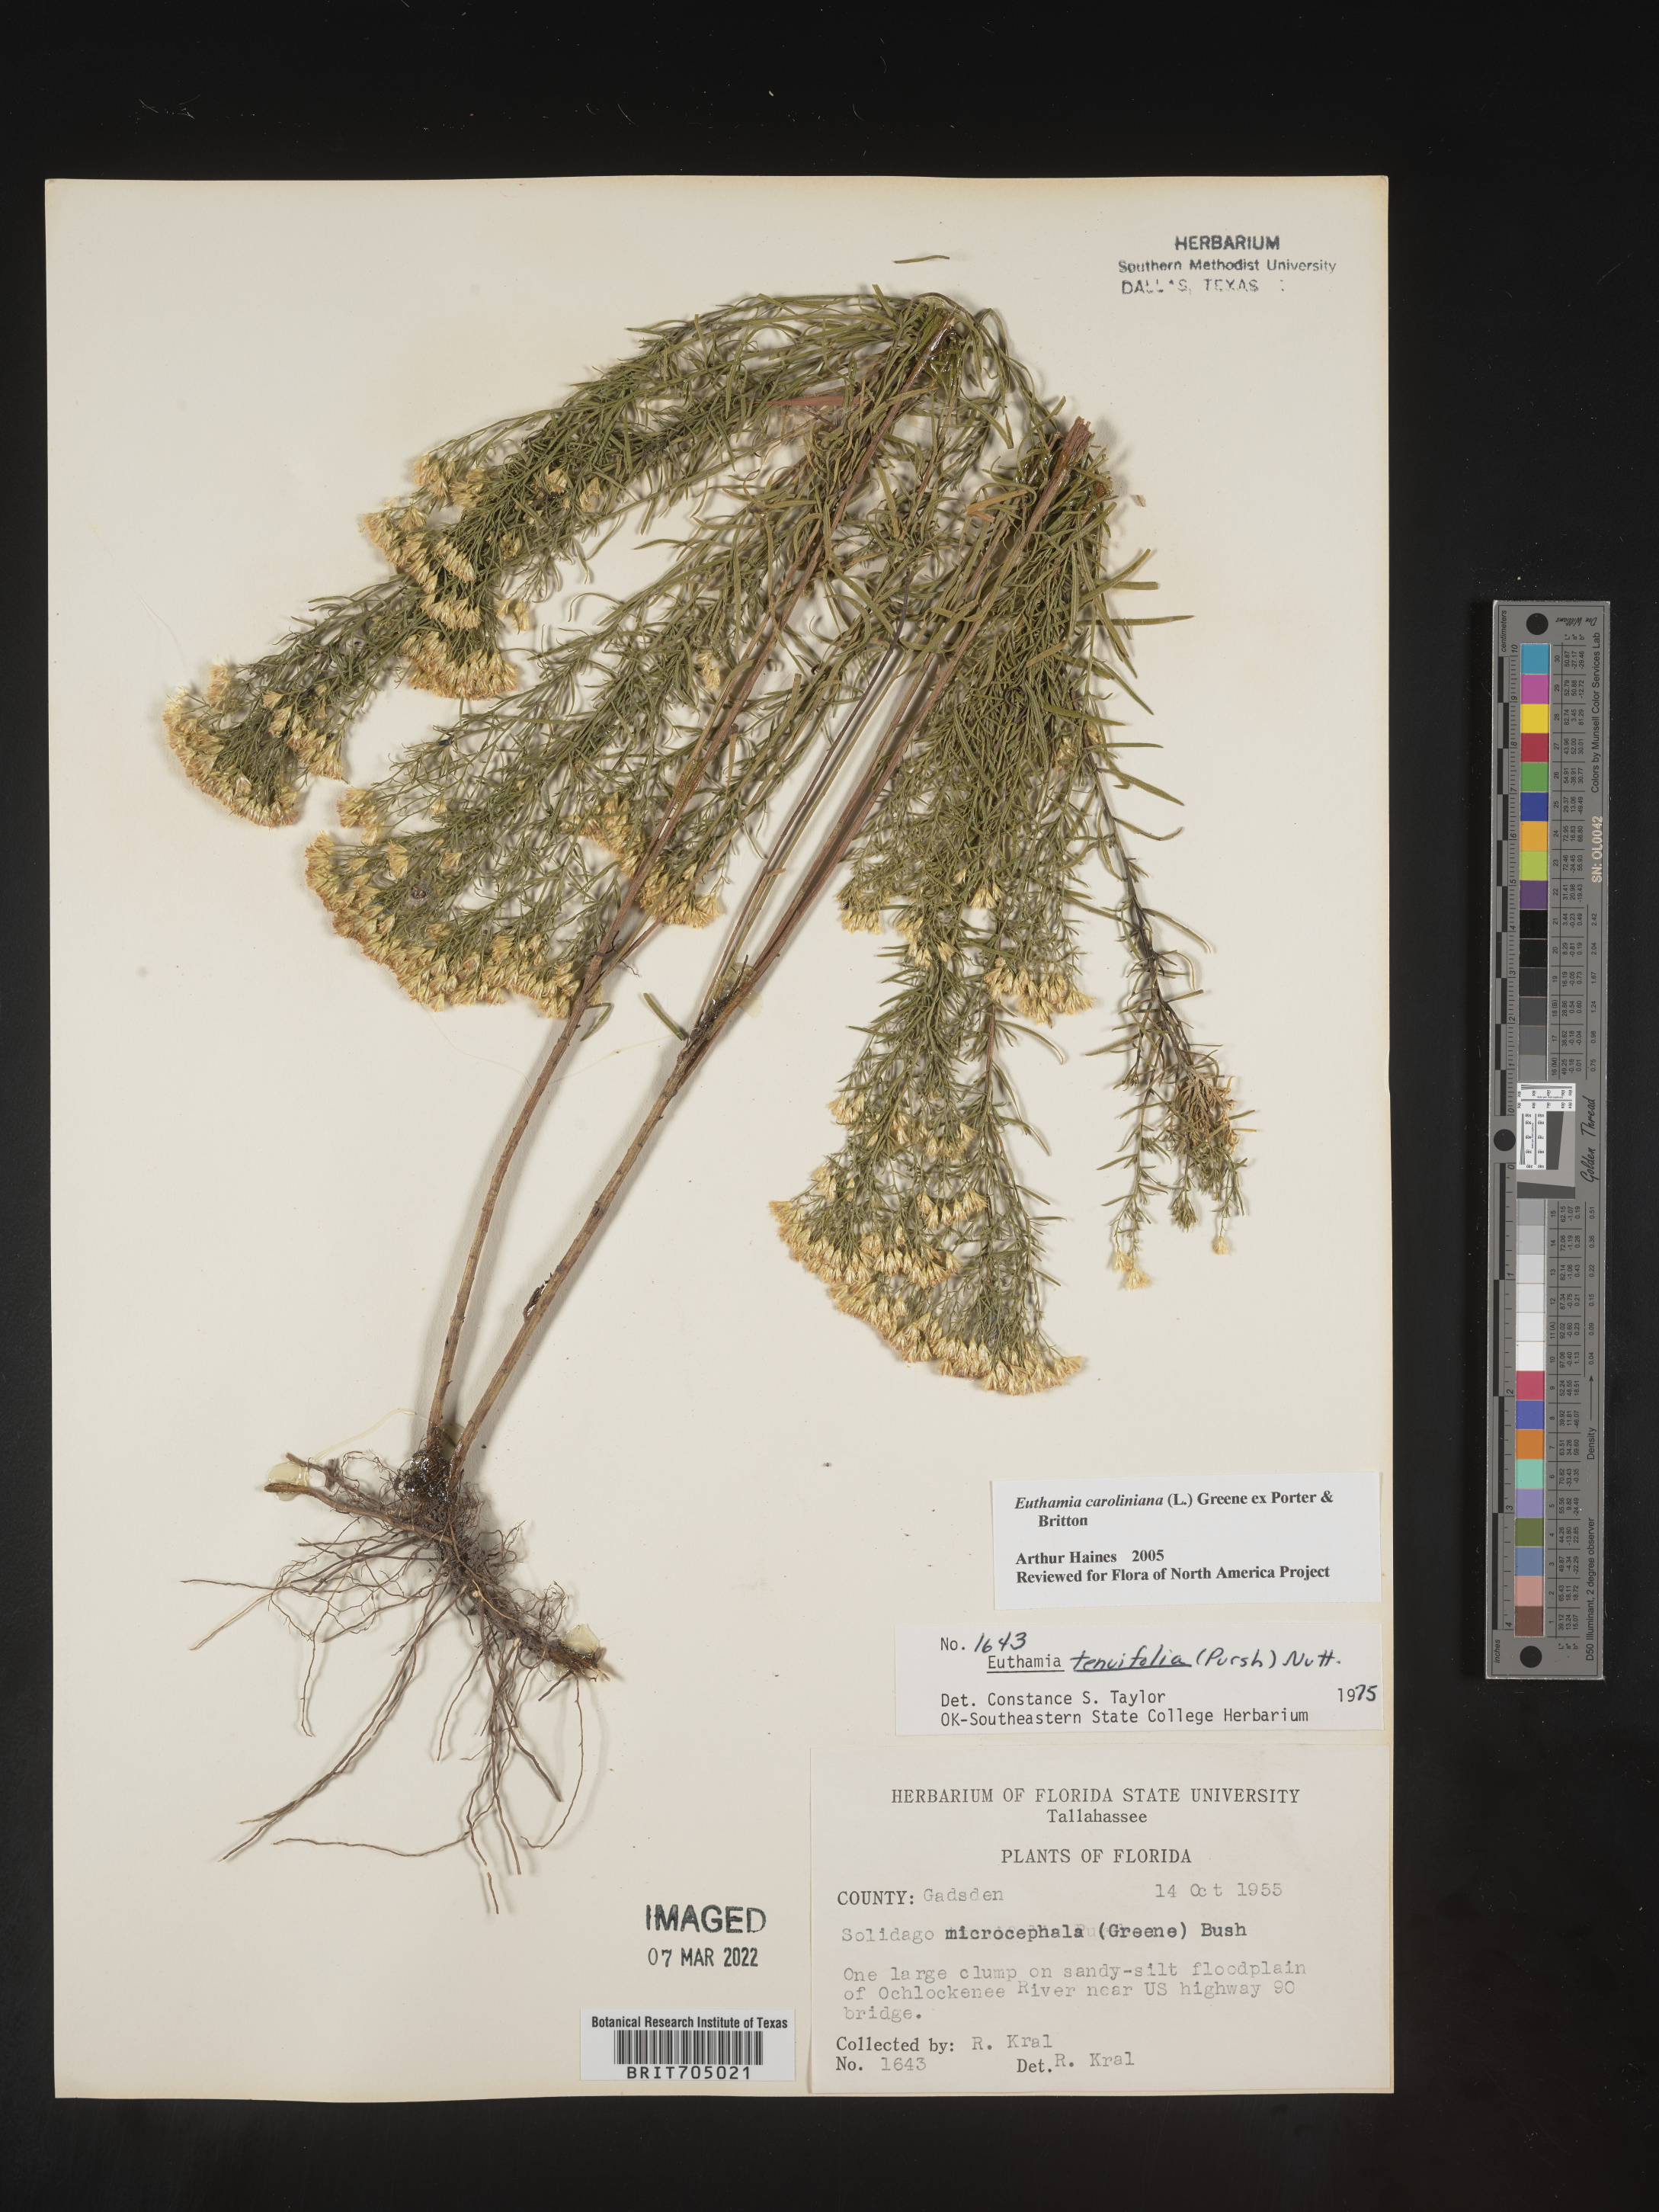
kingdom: Plantae
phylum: Tracheophyta
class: Magnoliopsida
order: Asterales
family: Asteraceae
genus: Euthamia
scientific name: Euthamia caroliniana
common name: Coastal plain goldentop
